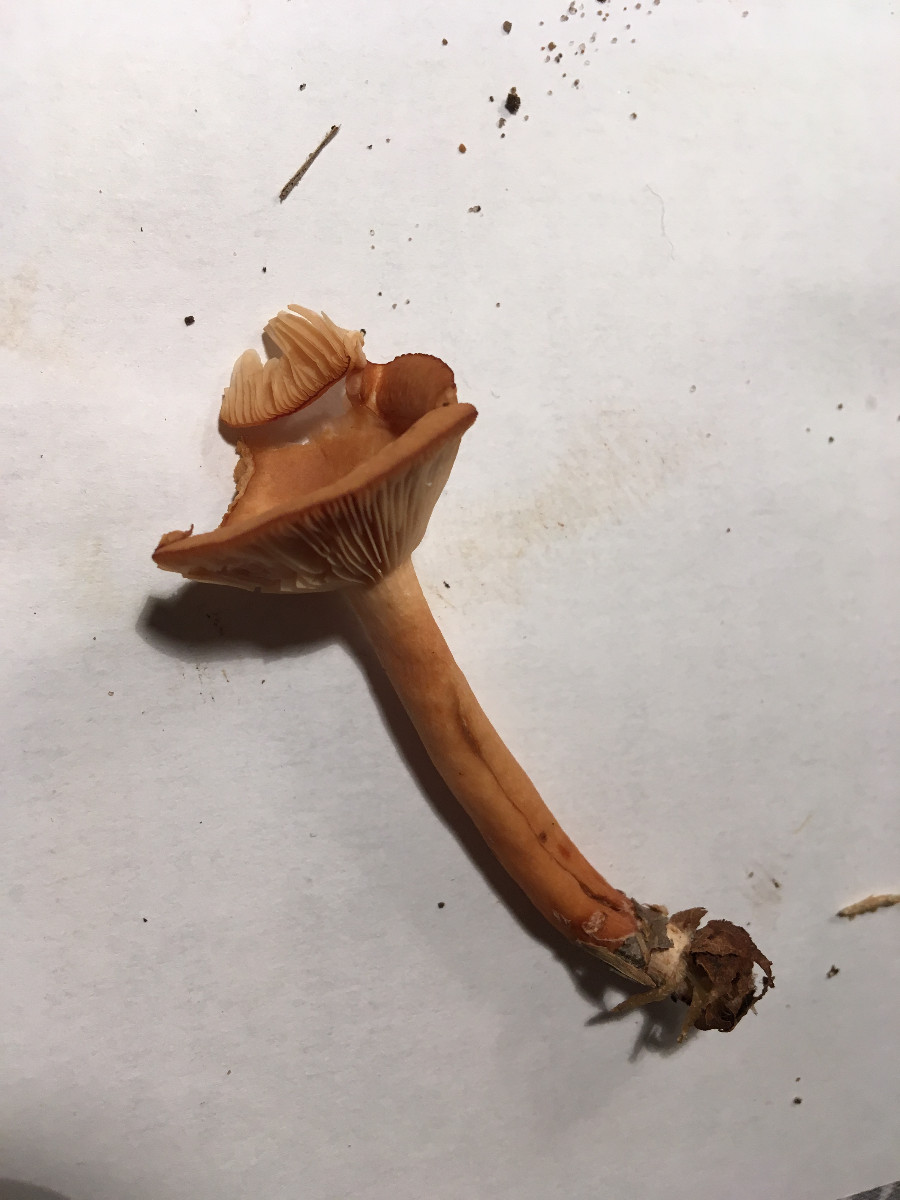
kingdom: Fungi
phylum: Basidiomycota
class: Agaricomycetes
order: Russulales
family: Russulaceae
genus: Lactarius
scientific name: Lactarius camphoratus
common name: kamfer-mælkehat
